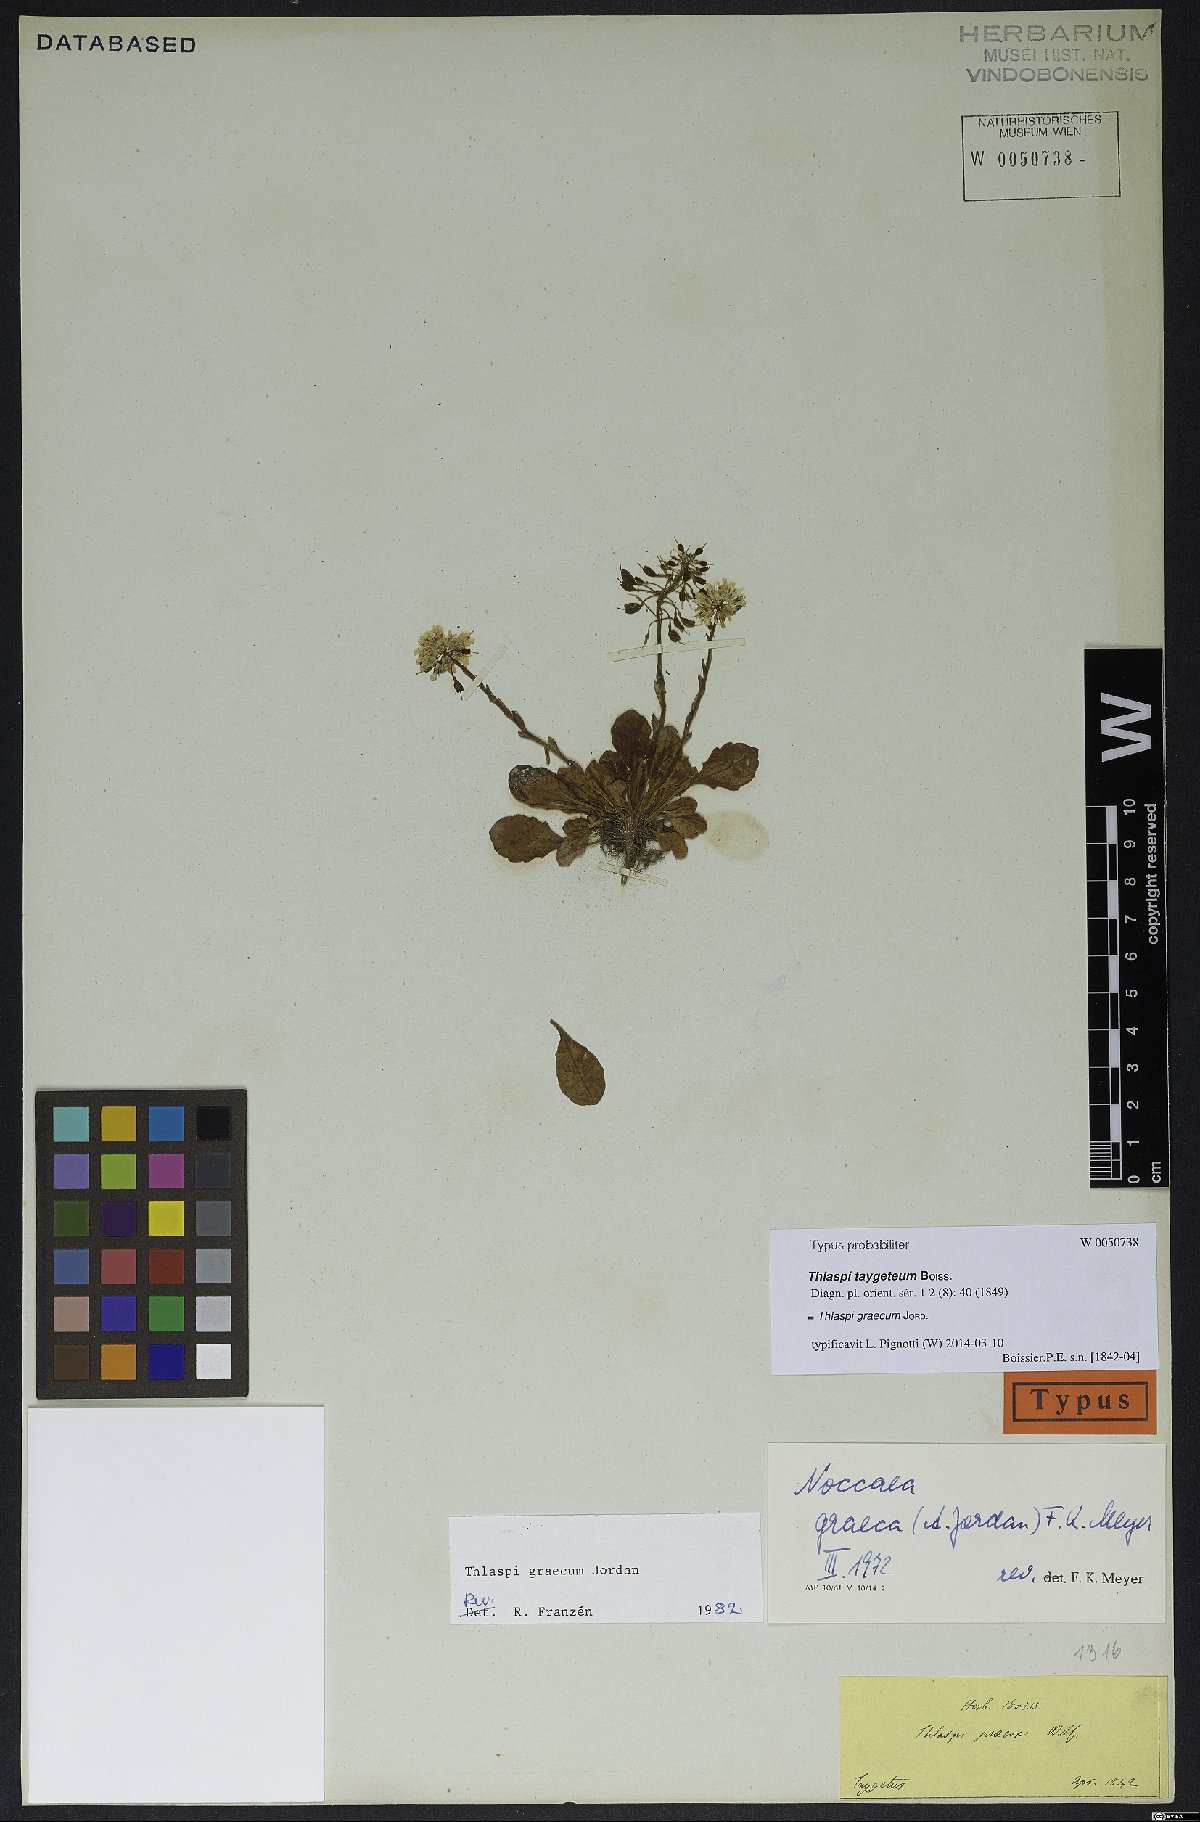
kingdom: Plantae
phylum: Tracheophyta
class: Magnoliopsida
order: Brassicales
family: Brassicaceae
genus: Noccaea
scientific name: Noccaea graeca
